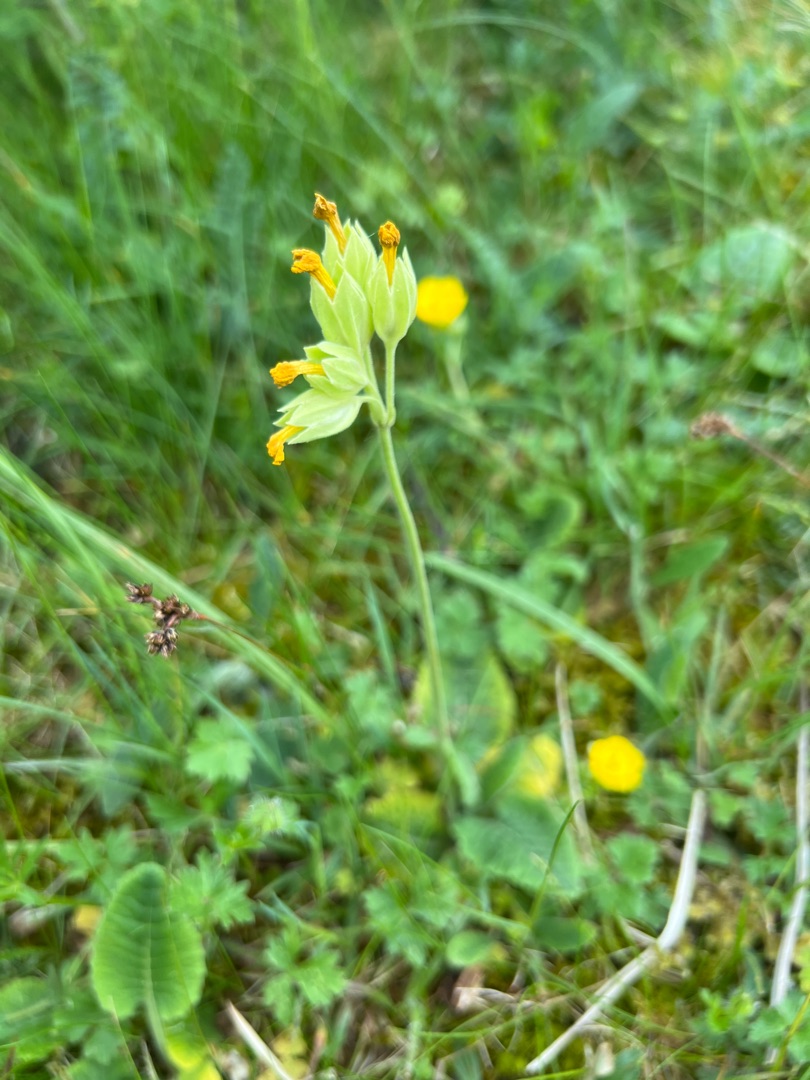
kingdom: Plantae
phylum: Tracheophyta
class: Magnoliopsida
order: Ericales
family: Primulaceae
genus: Primula
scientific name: Primula veris
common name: Hulkravet kodriver
